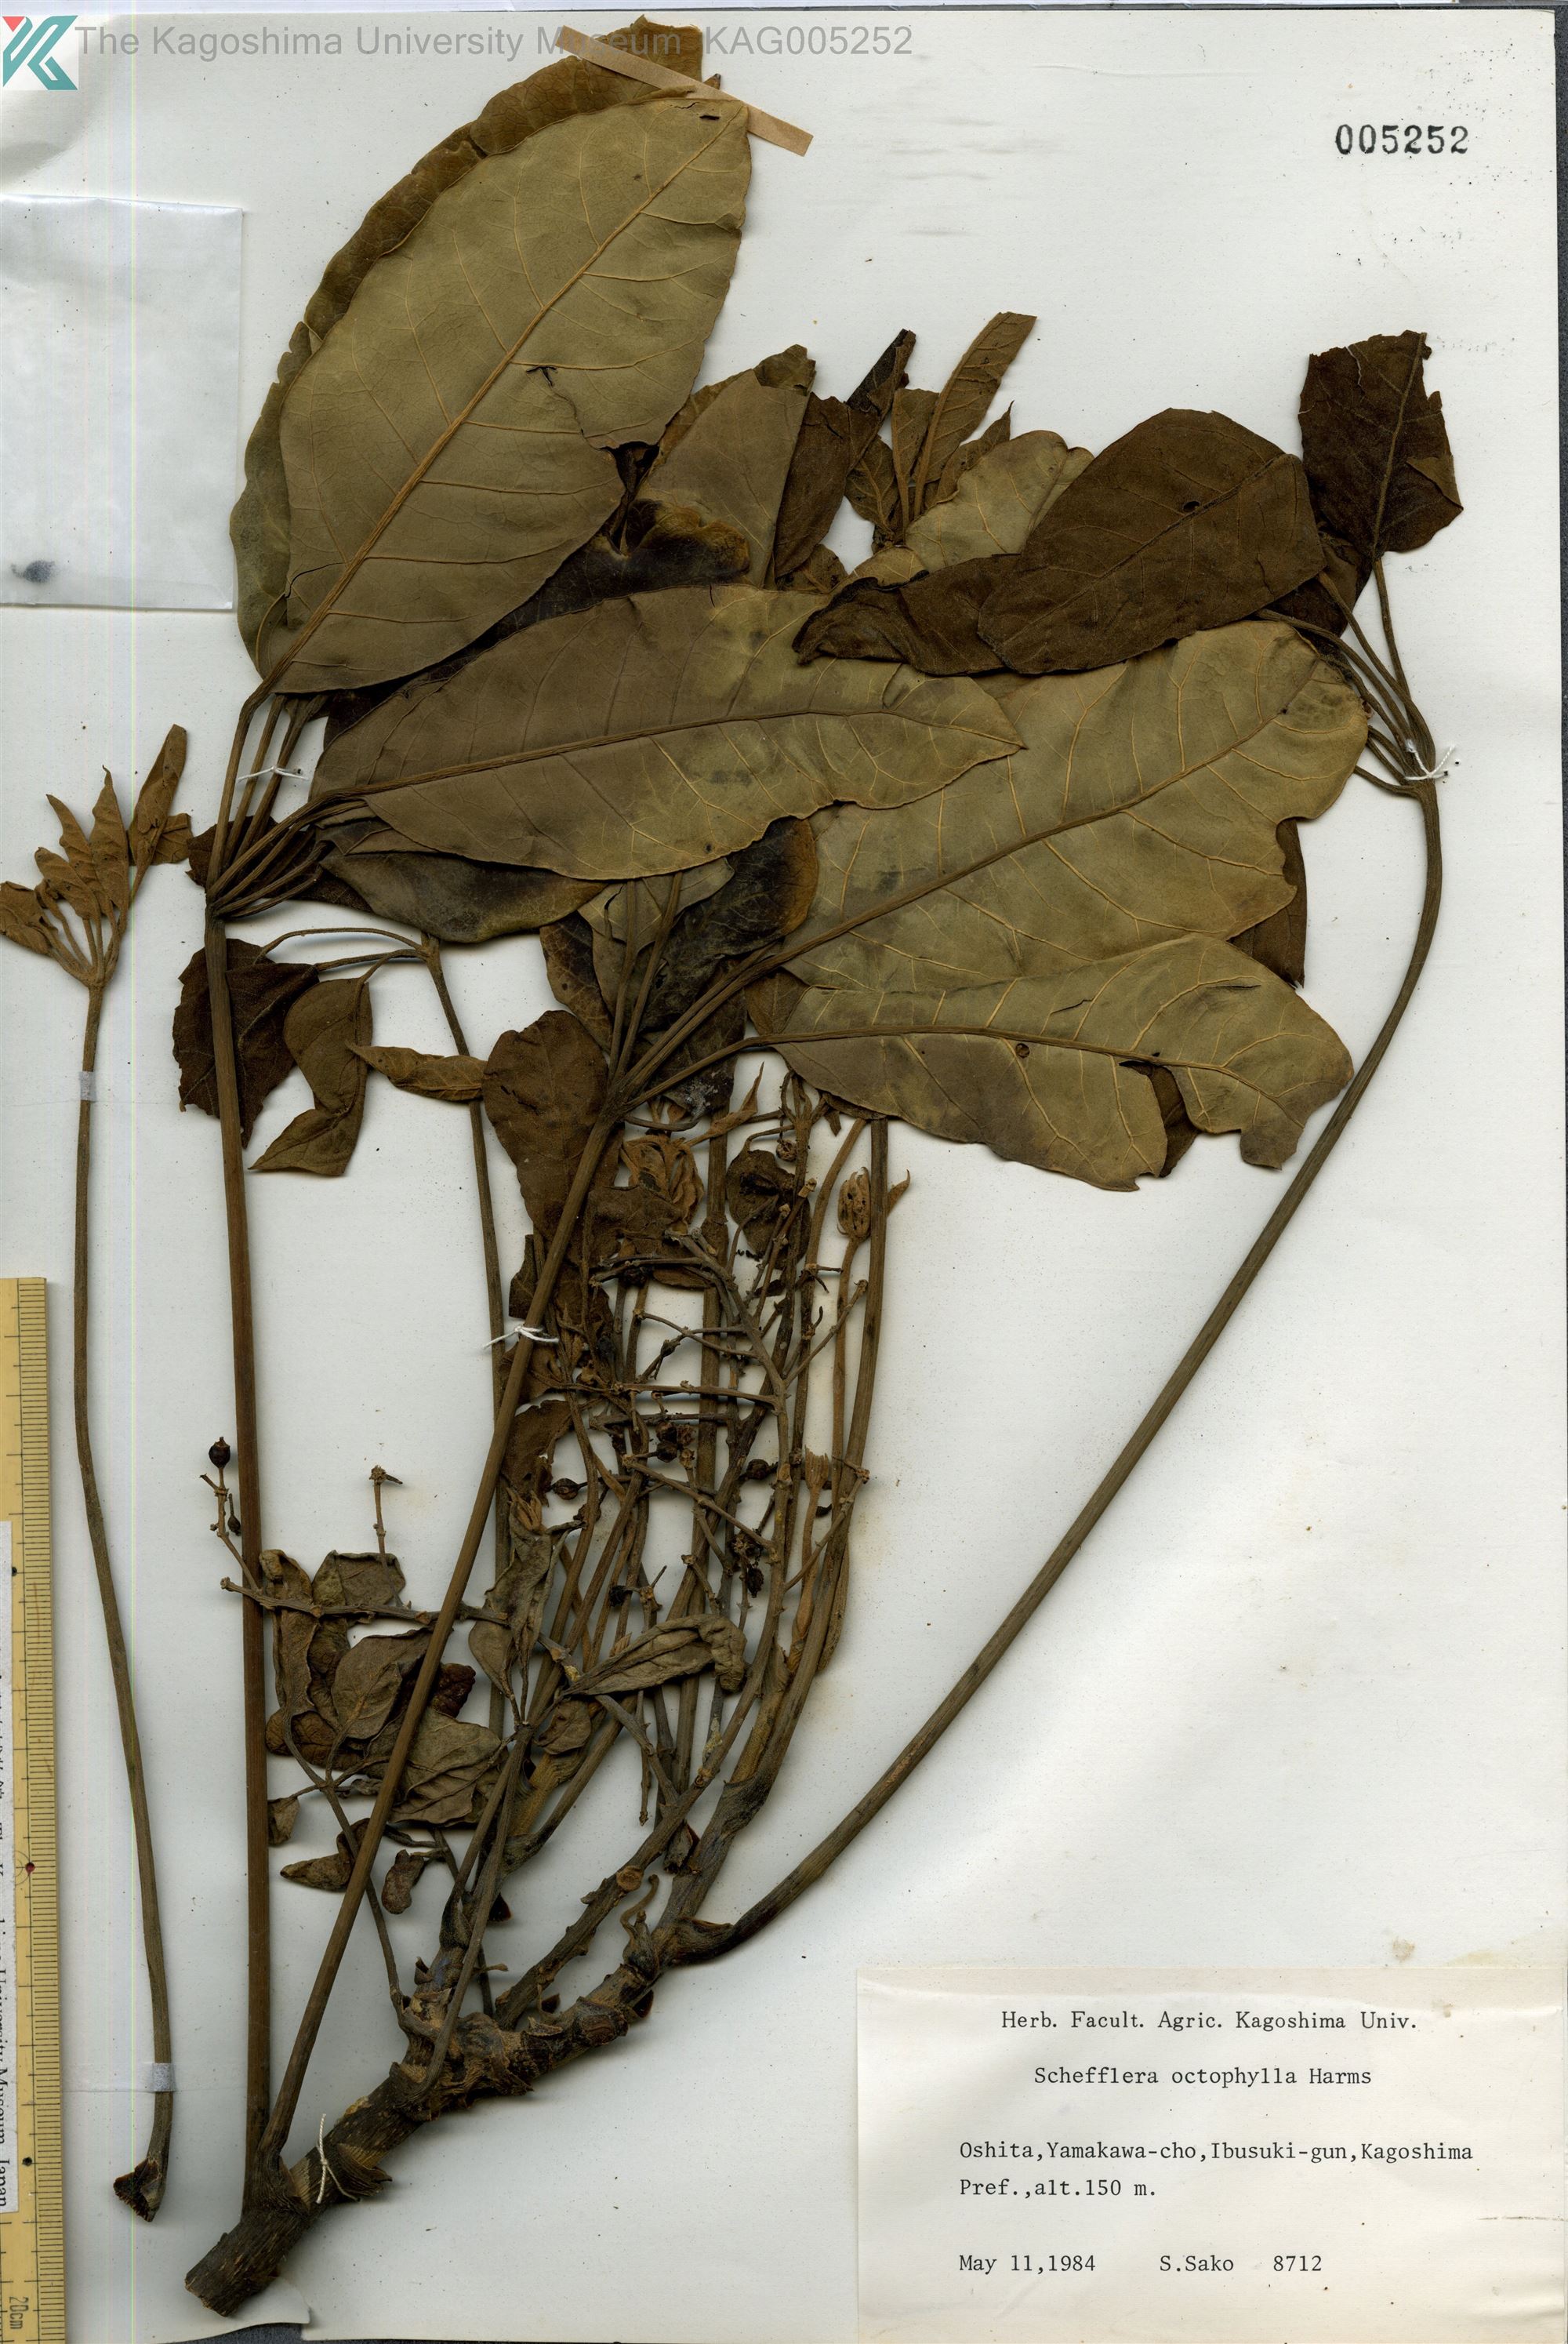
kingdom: Plantae
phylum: Tracheophyta
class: Magnoliopsida
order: Apiales
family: Araliaceae
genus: Heptapleurum
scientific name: Heptapleurum heptaphyllum
